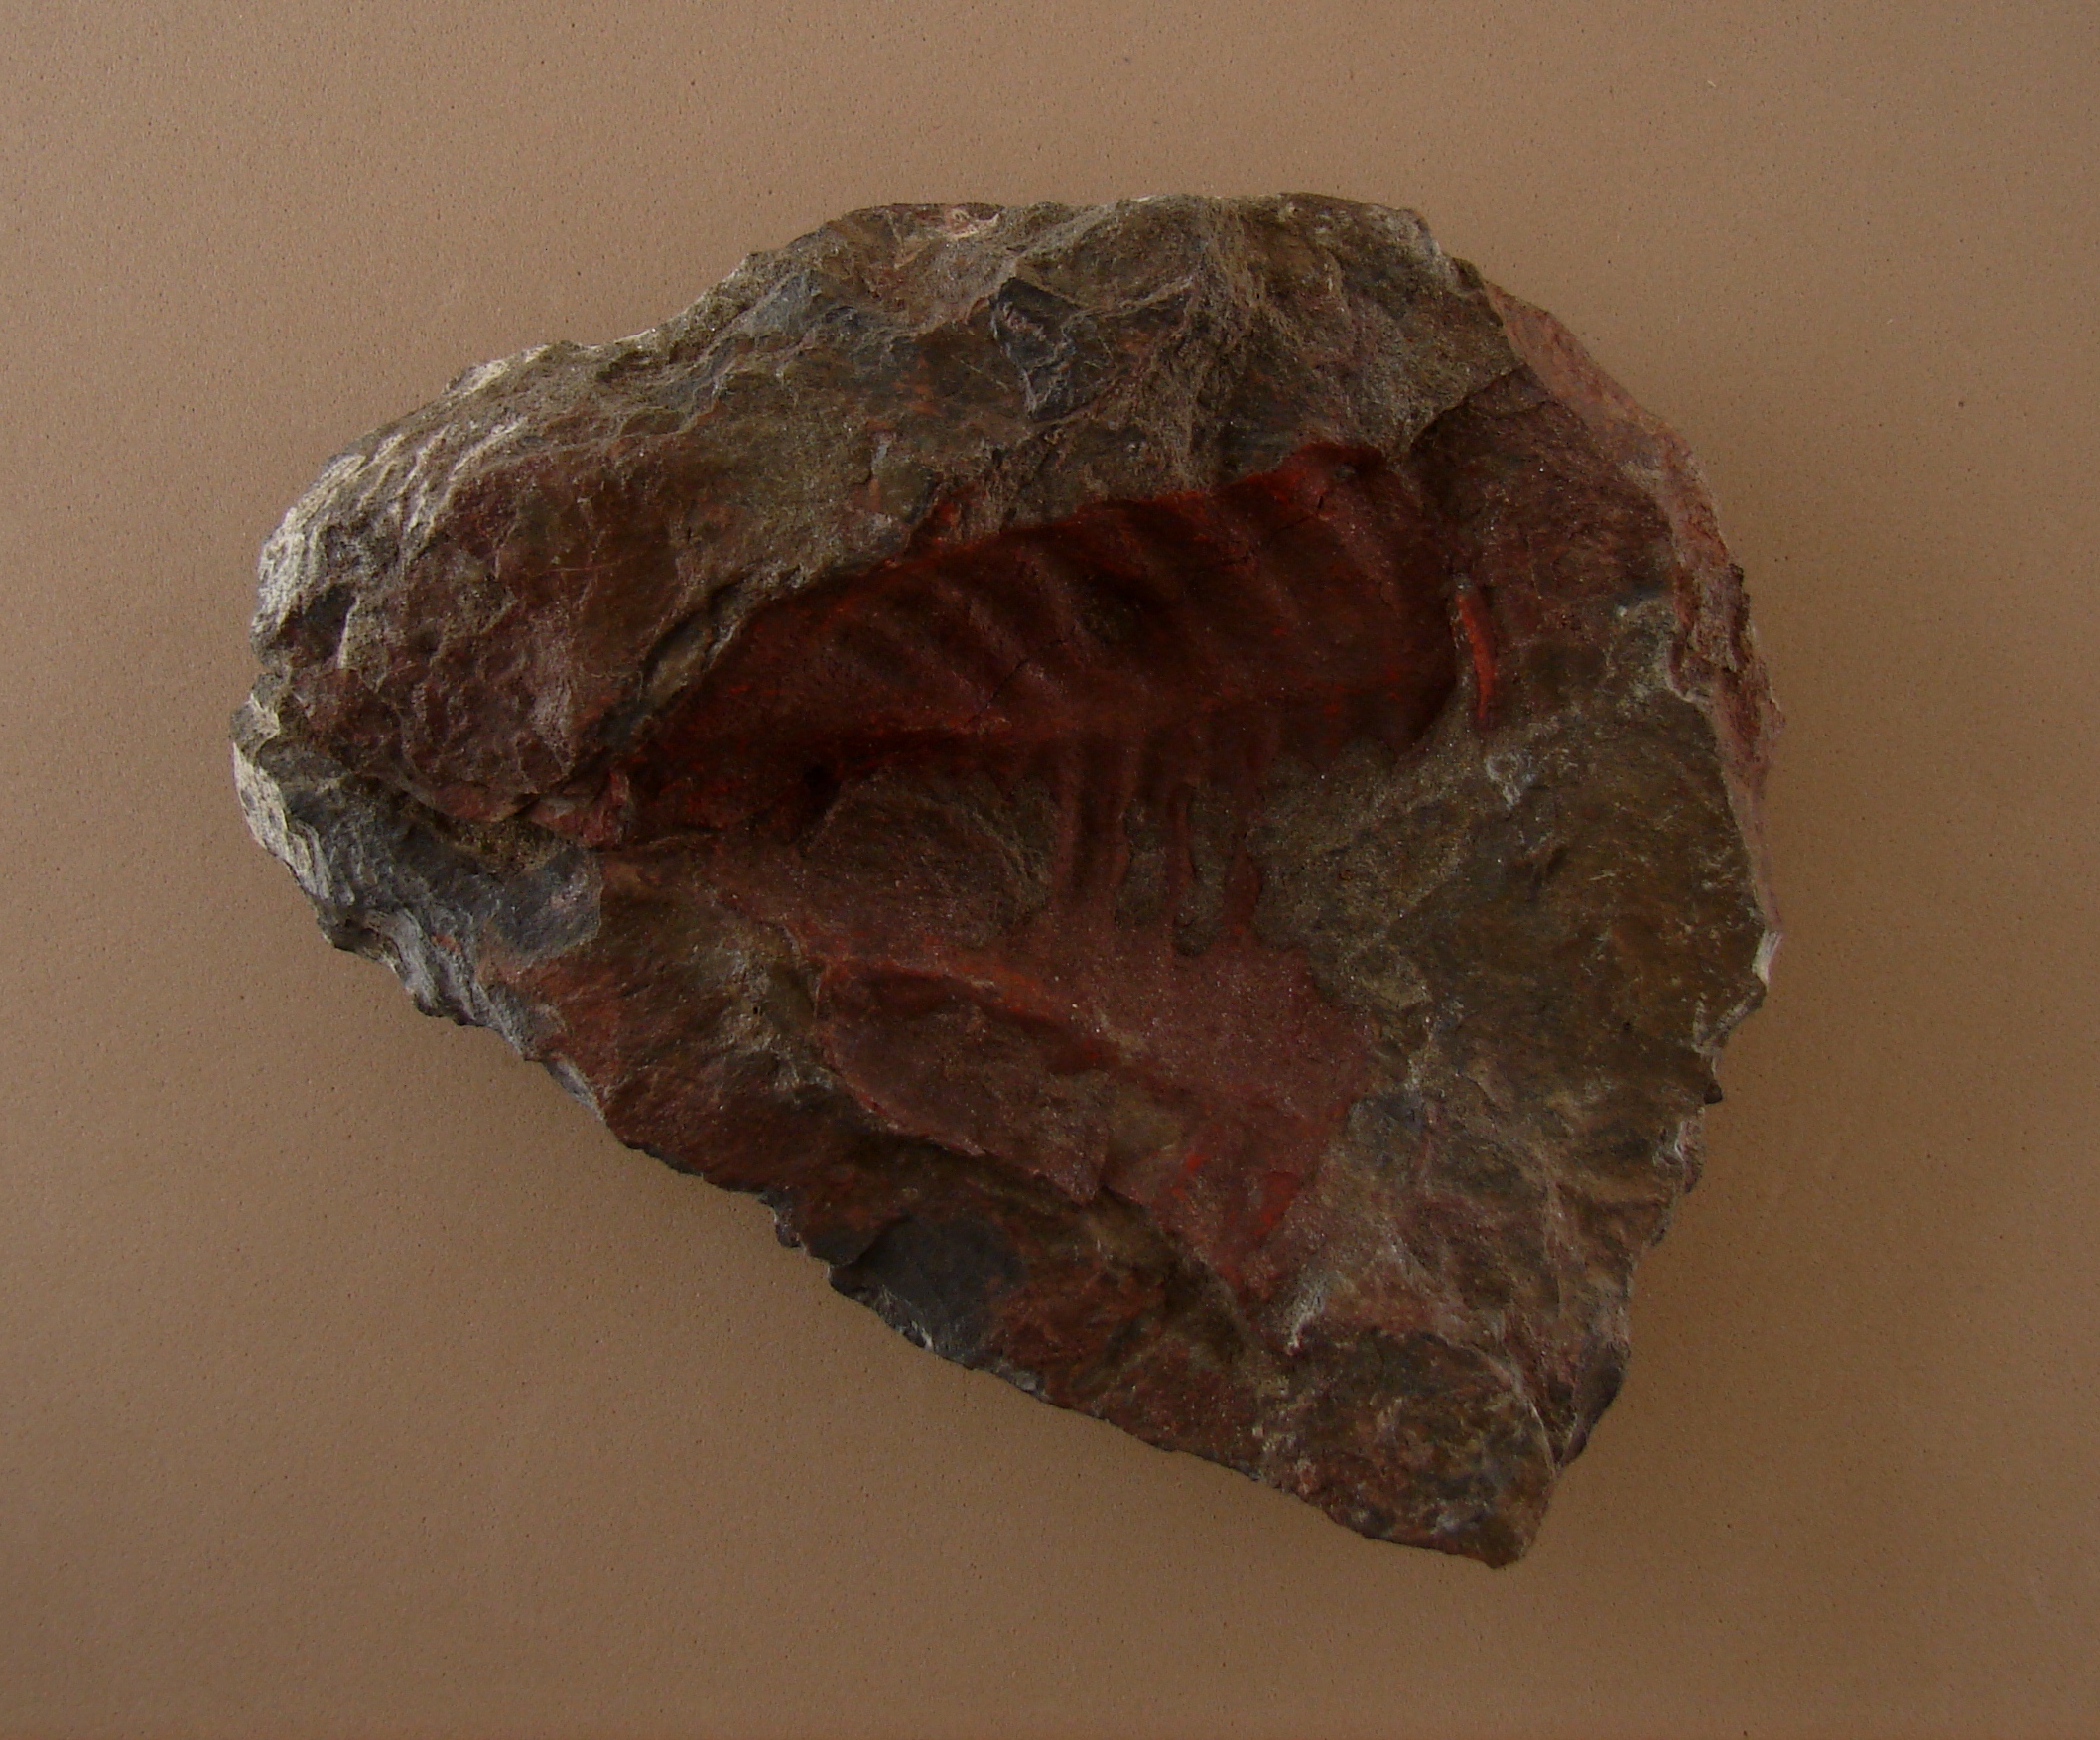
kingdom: Animalia
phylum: Arthropoda
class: Trilobita
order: Phacopida
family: Bathycheilidae
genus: Burmeisterella
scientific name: Burmeisterella
